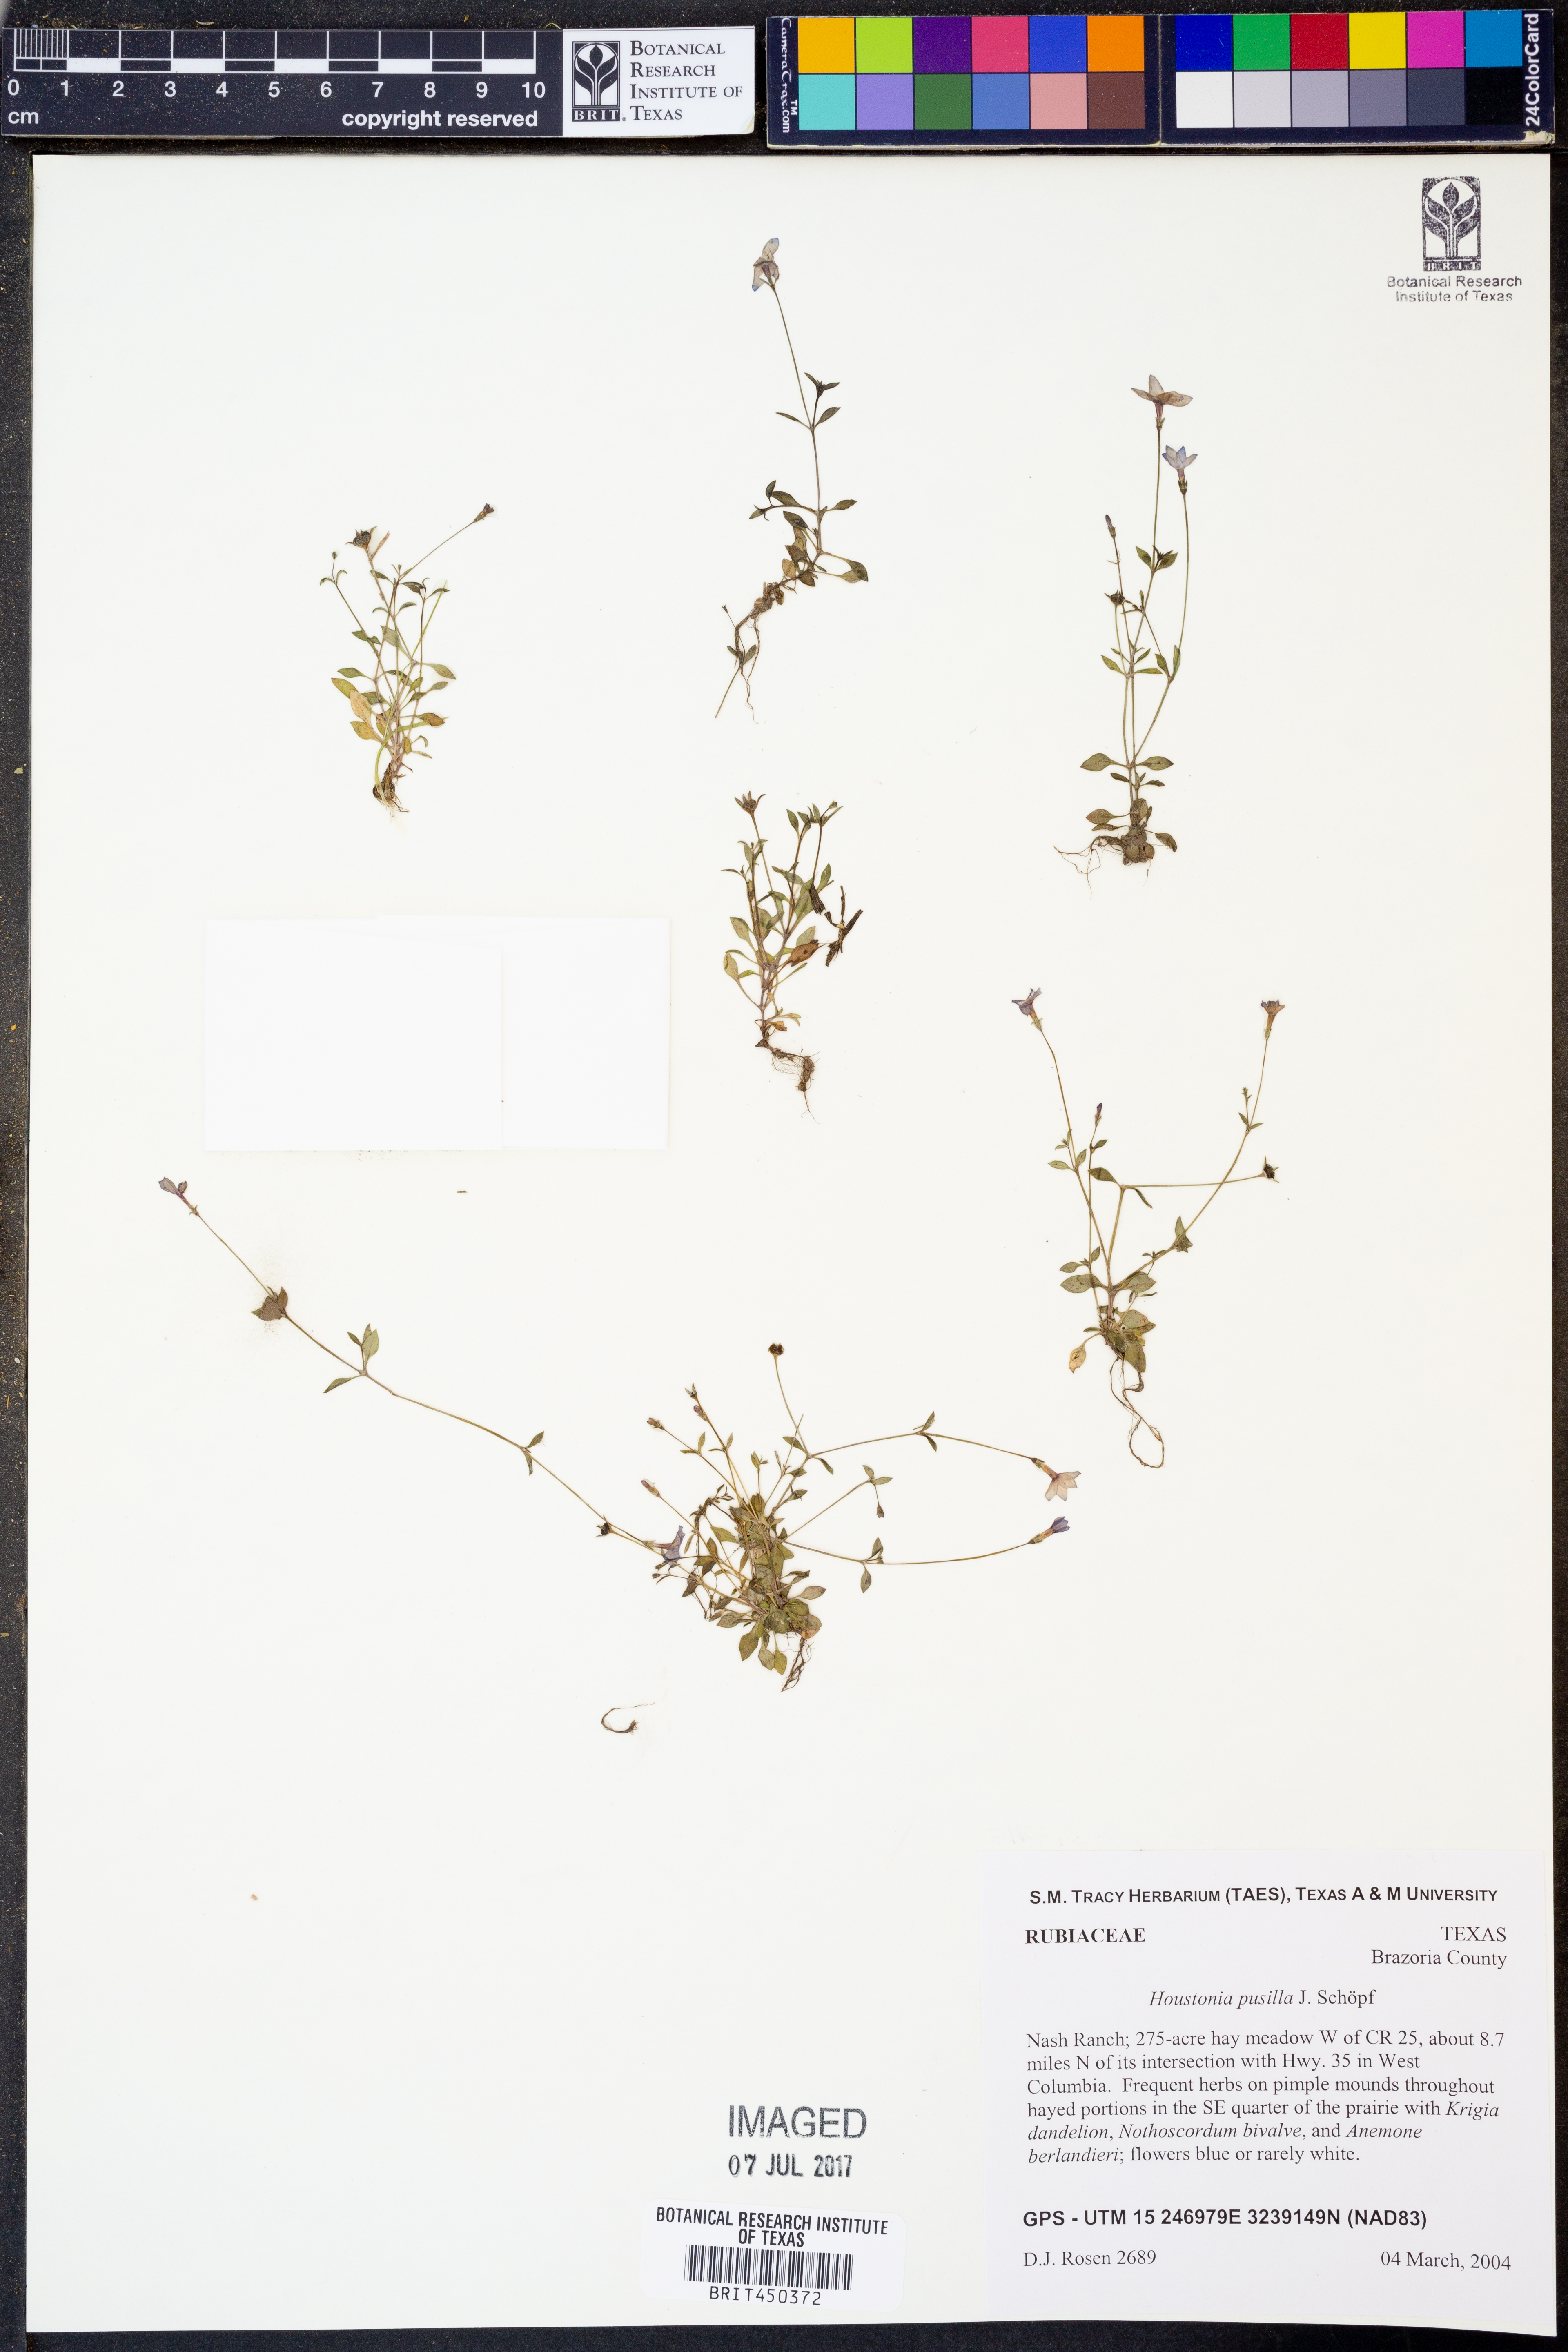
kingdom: Plantae
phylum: Tracheophyta
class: Magnoliopsida
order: Gentianales
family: Rubiaceae
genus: Houstonia
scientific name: Houstonia pusilla
